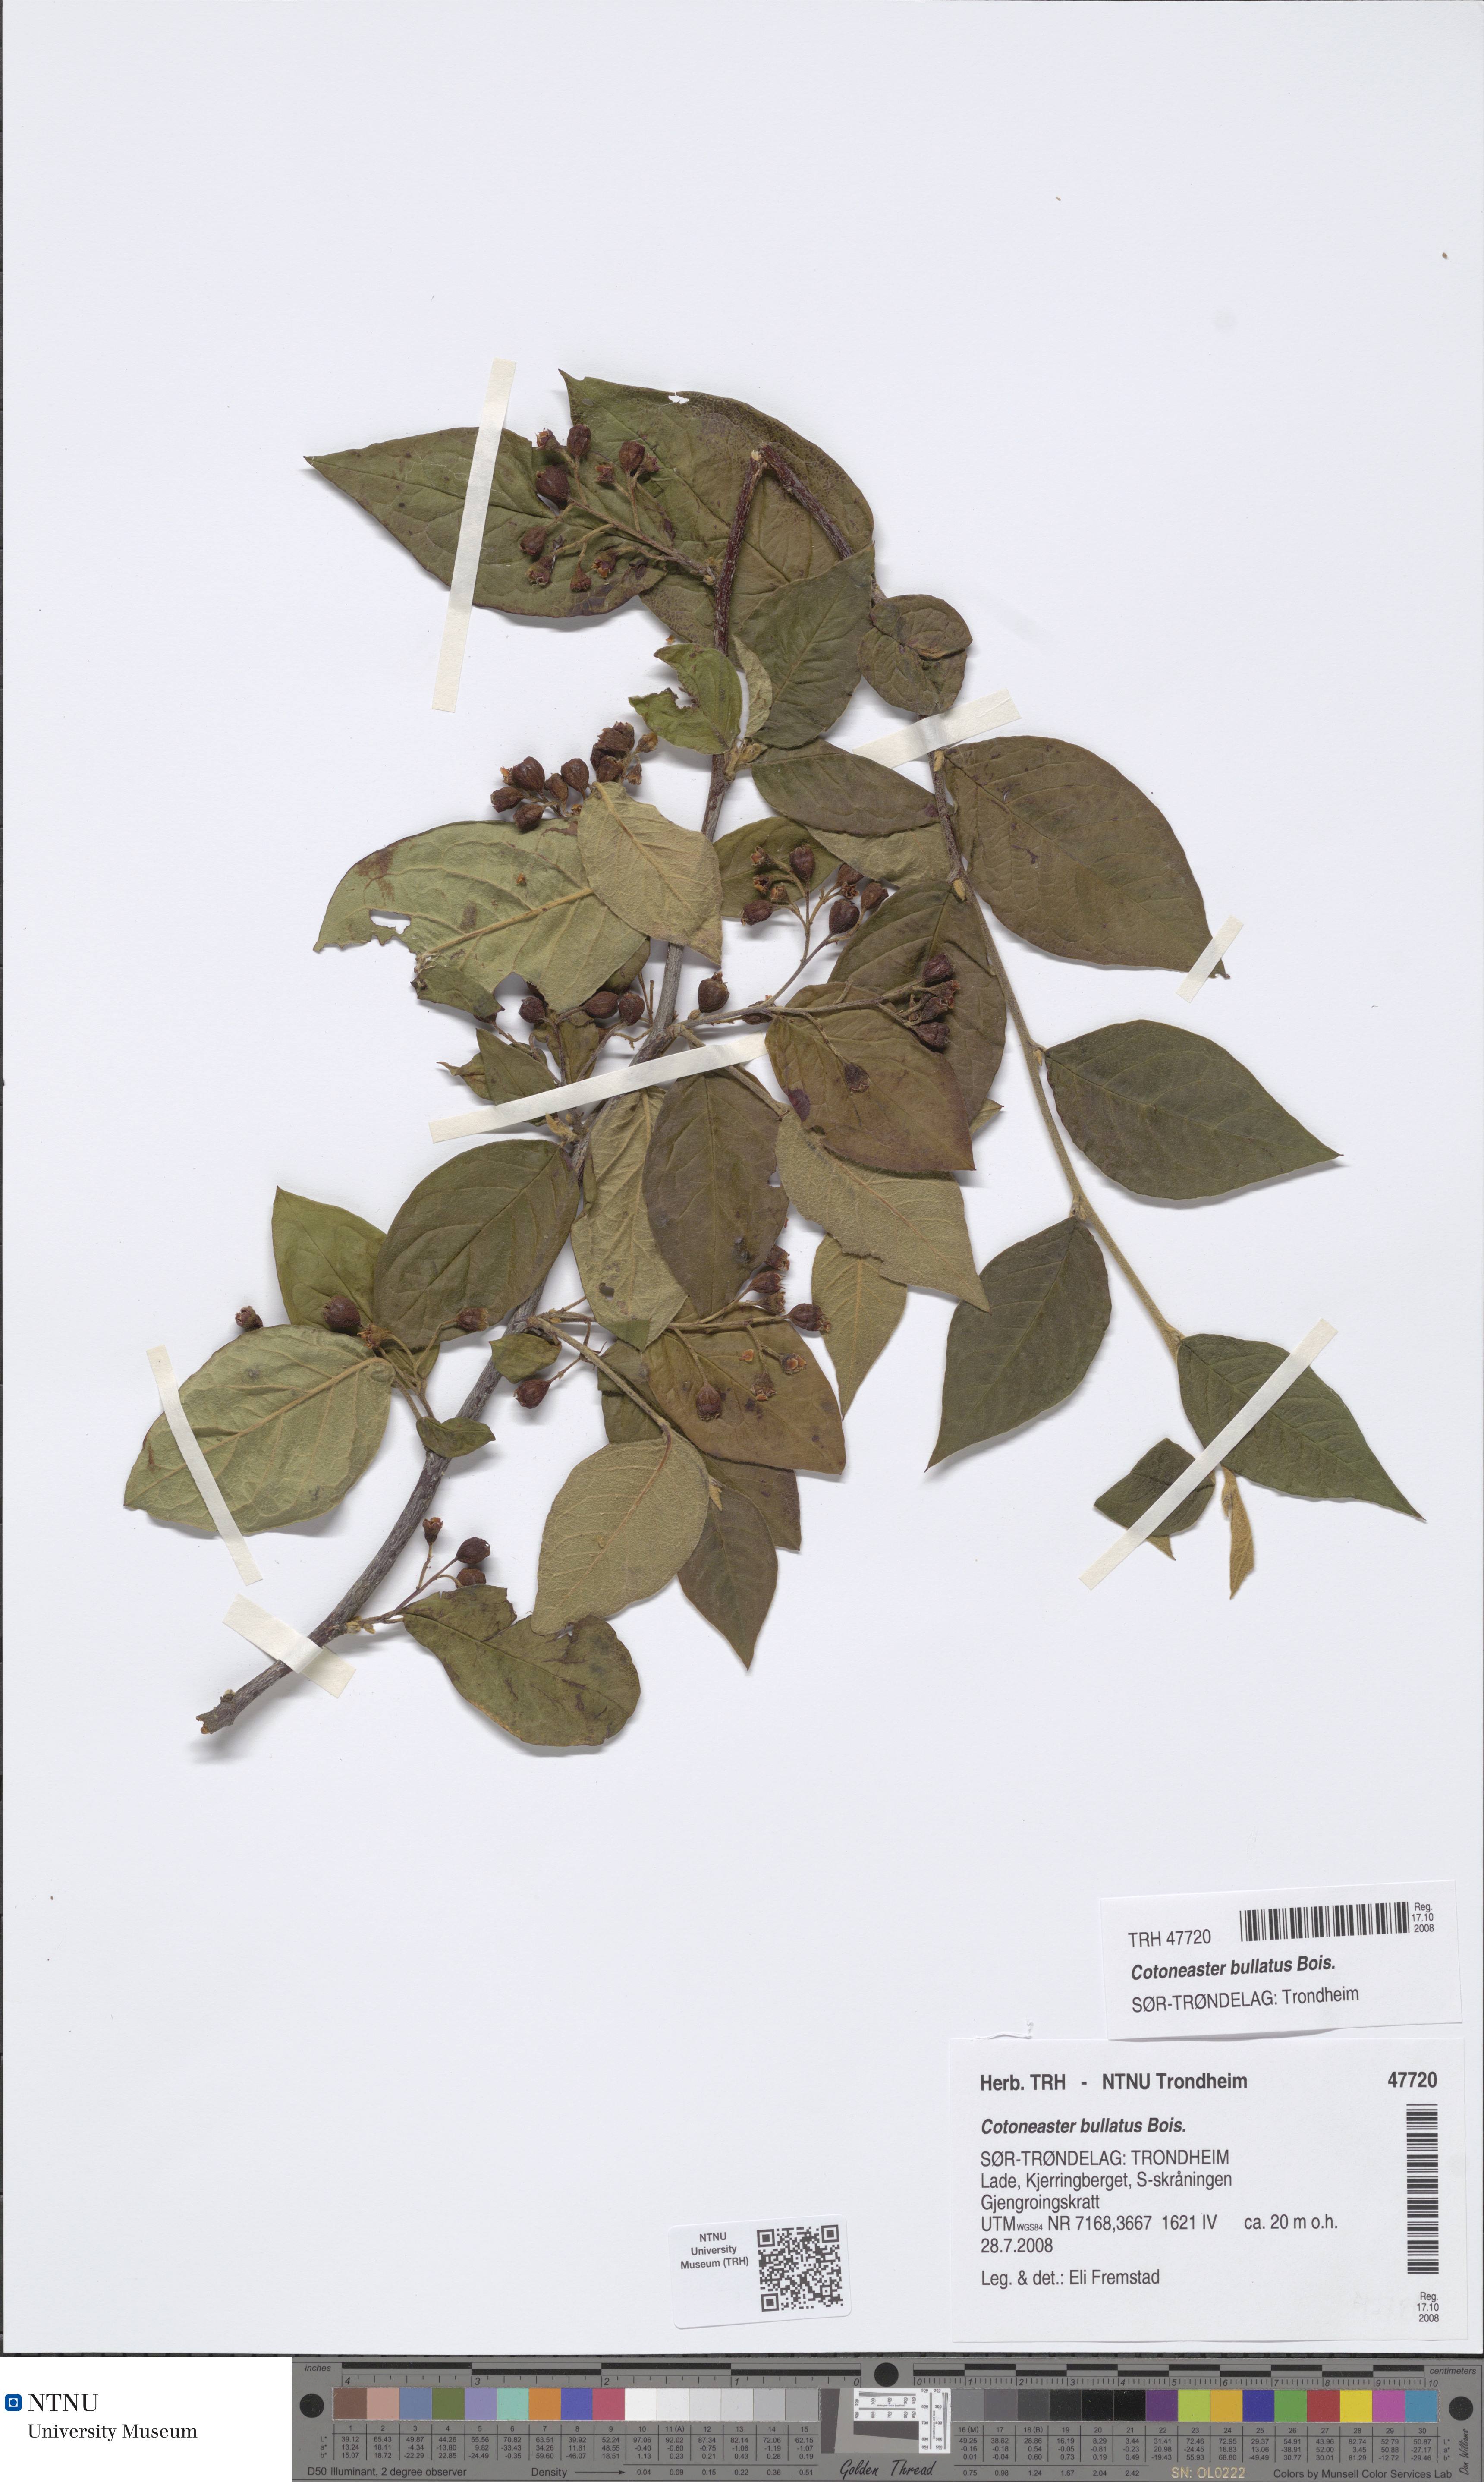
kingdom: Plantae
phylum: Tracheophyta
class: Magnoliopsida
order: Rosales
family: Rosaceae
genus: Cotoneaster
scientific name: Cotoneaster bullatus
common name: Hollyberry cotoneaster
